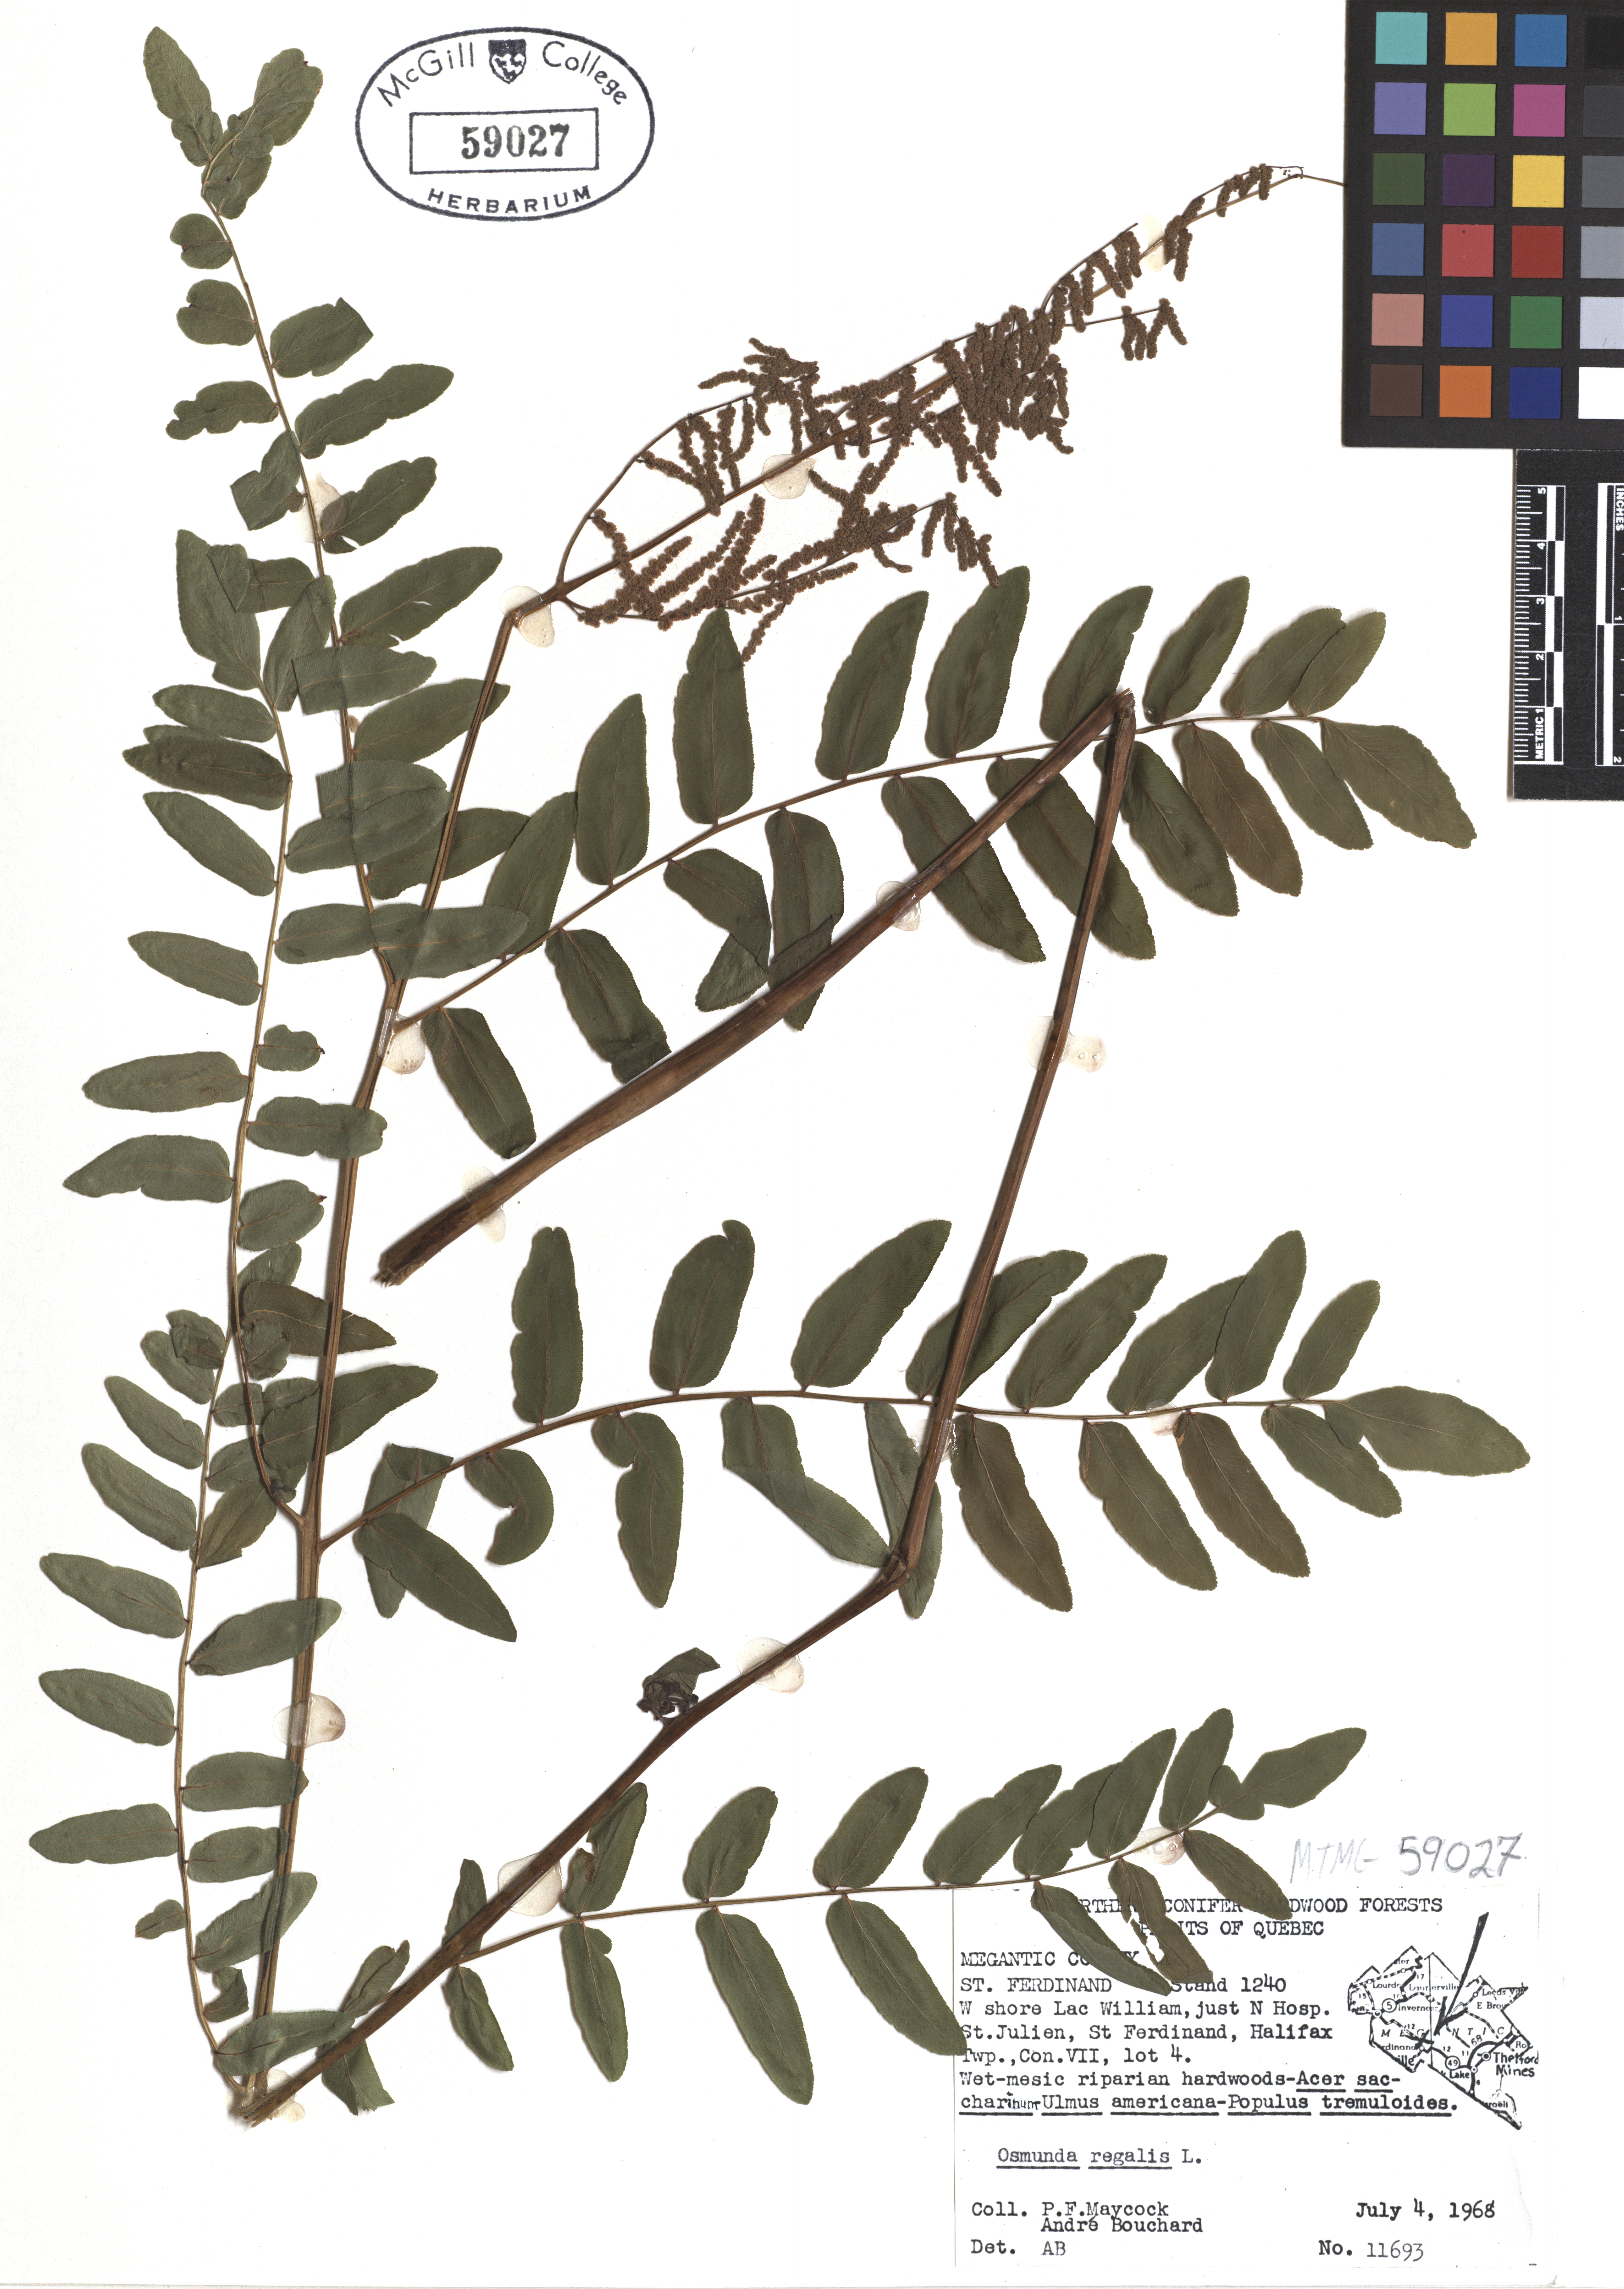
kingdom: Plantae
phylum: Tracheophyta
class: Polypodiopsida
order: Osmundales
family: Osmundaceae
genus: Osmunda
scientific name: Osmunda regalis
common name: Royal fern
